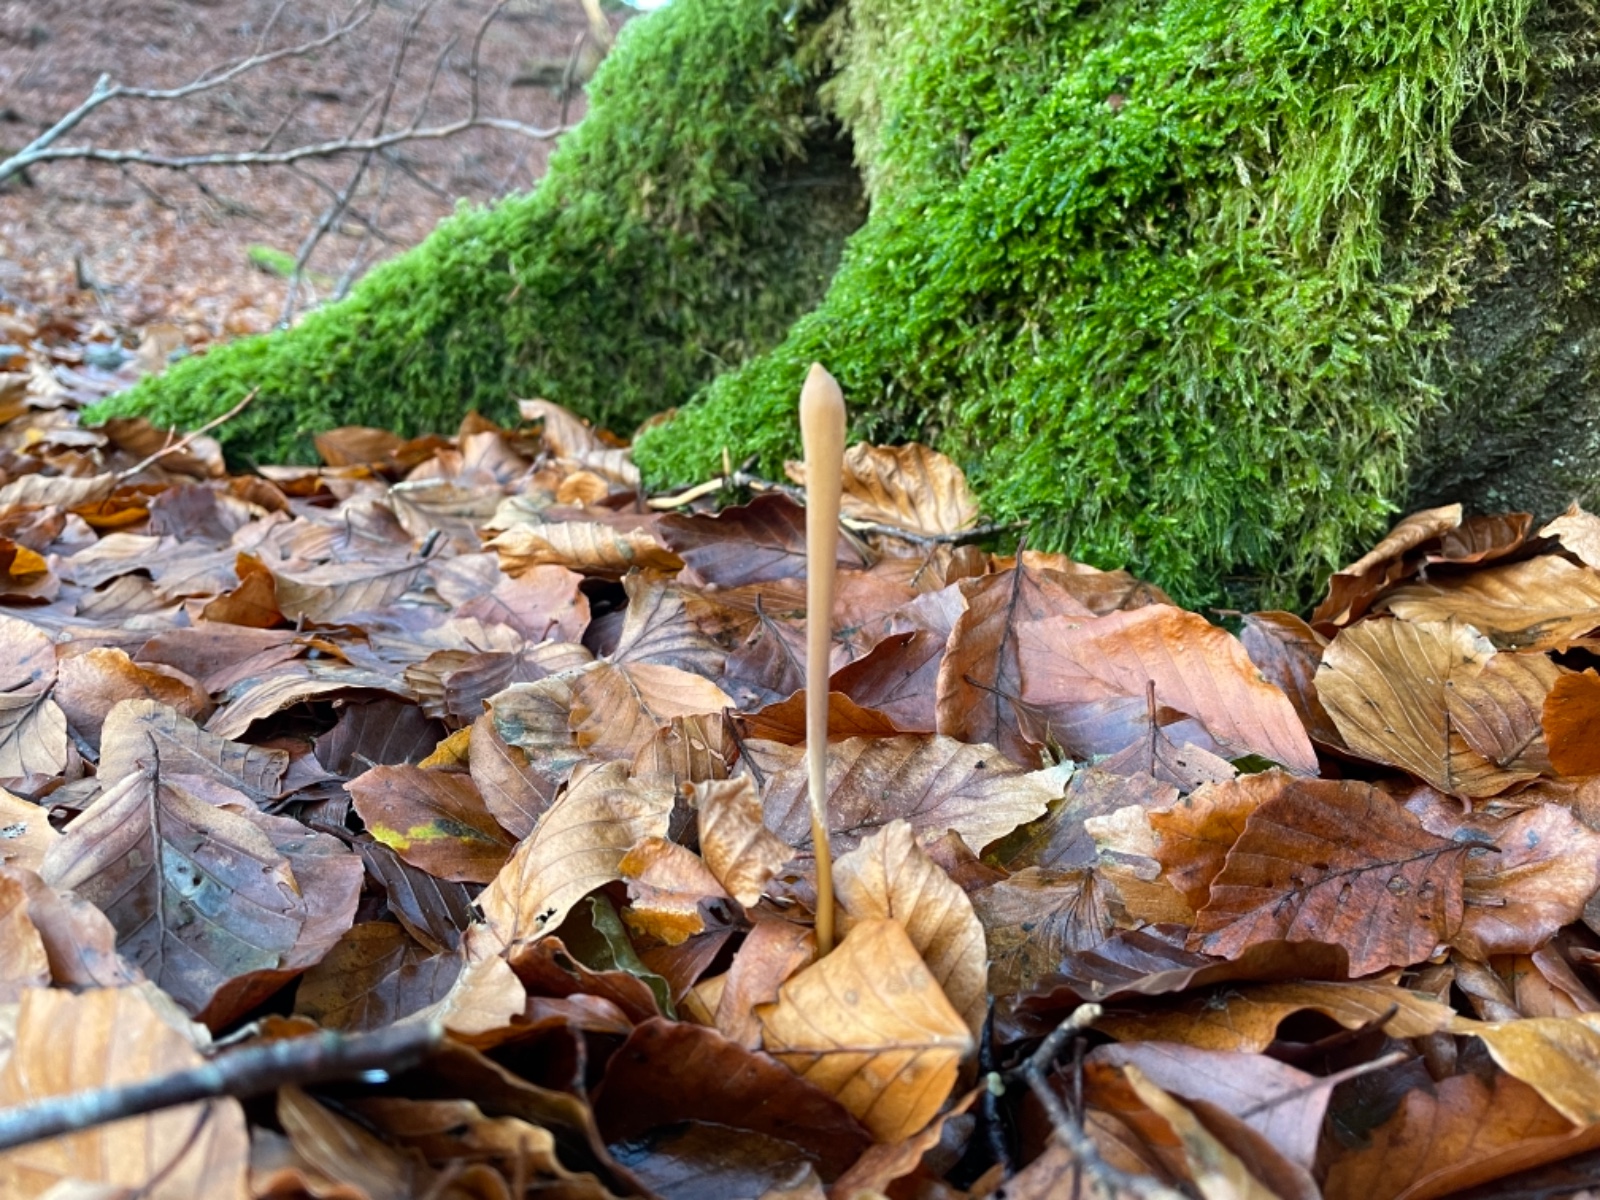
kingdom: Fungi
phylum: Basidiomycota
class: Agaricomycetes
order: Agaricales
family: Typhulaceae
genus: Typhula
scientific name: Typhula fistulosa
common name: pibet rørkølle
